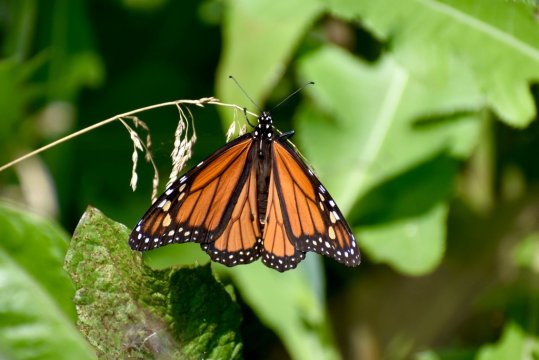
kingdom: Animalia
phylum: Arthropoda
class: Insecta
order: Lepidoptera
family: Nymphalidae
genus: Danaus
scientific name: Danaus plexippus
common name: Monarch
